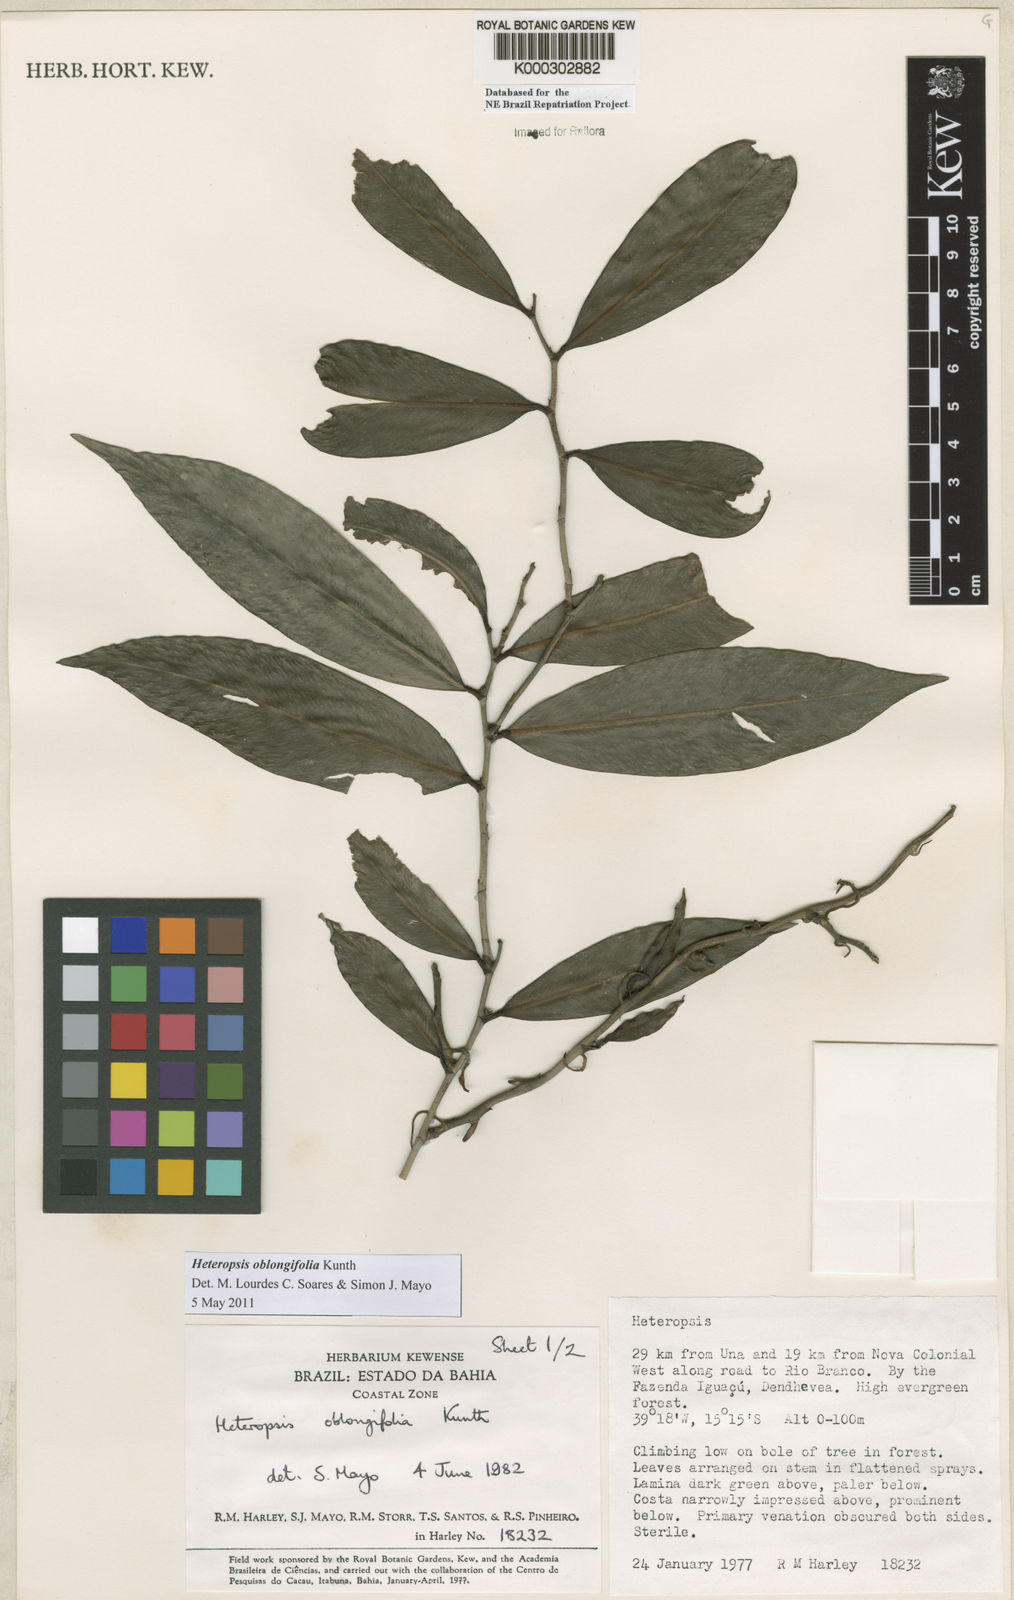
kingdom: Plantae
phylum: Tracheophyta
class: Liliopsida
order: Alismatales
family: Araceae
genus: Heteropsis
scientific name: Heteropsis oblongifolia
